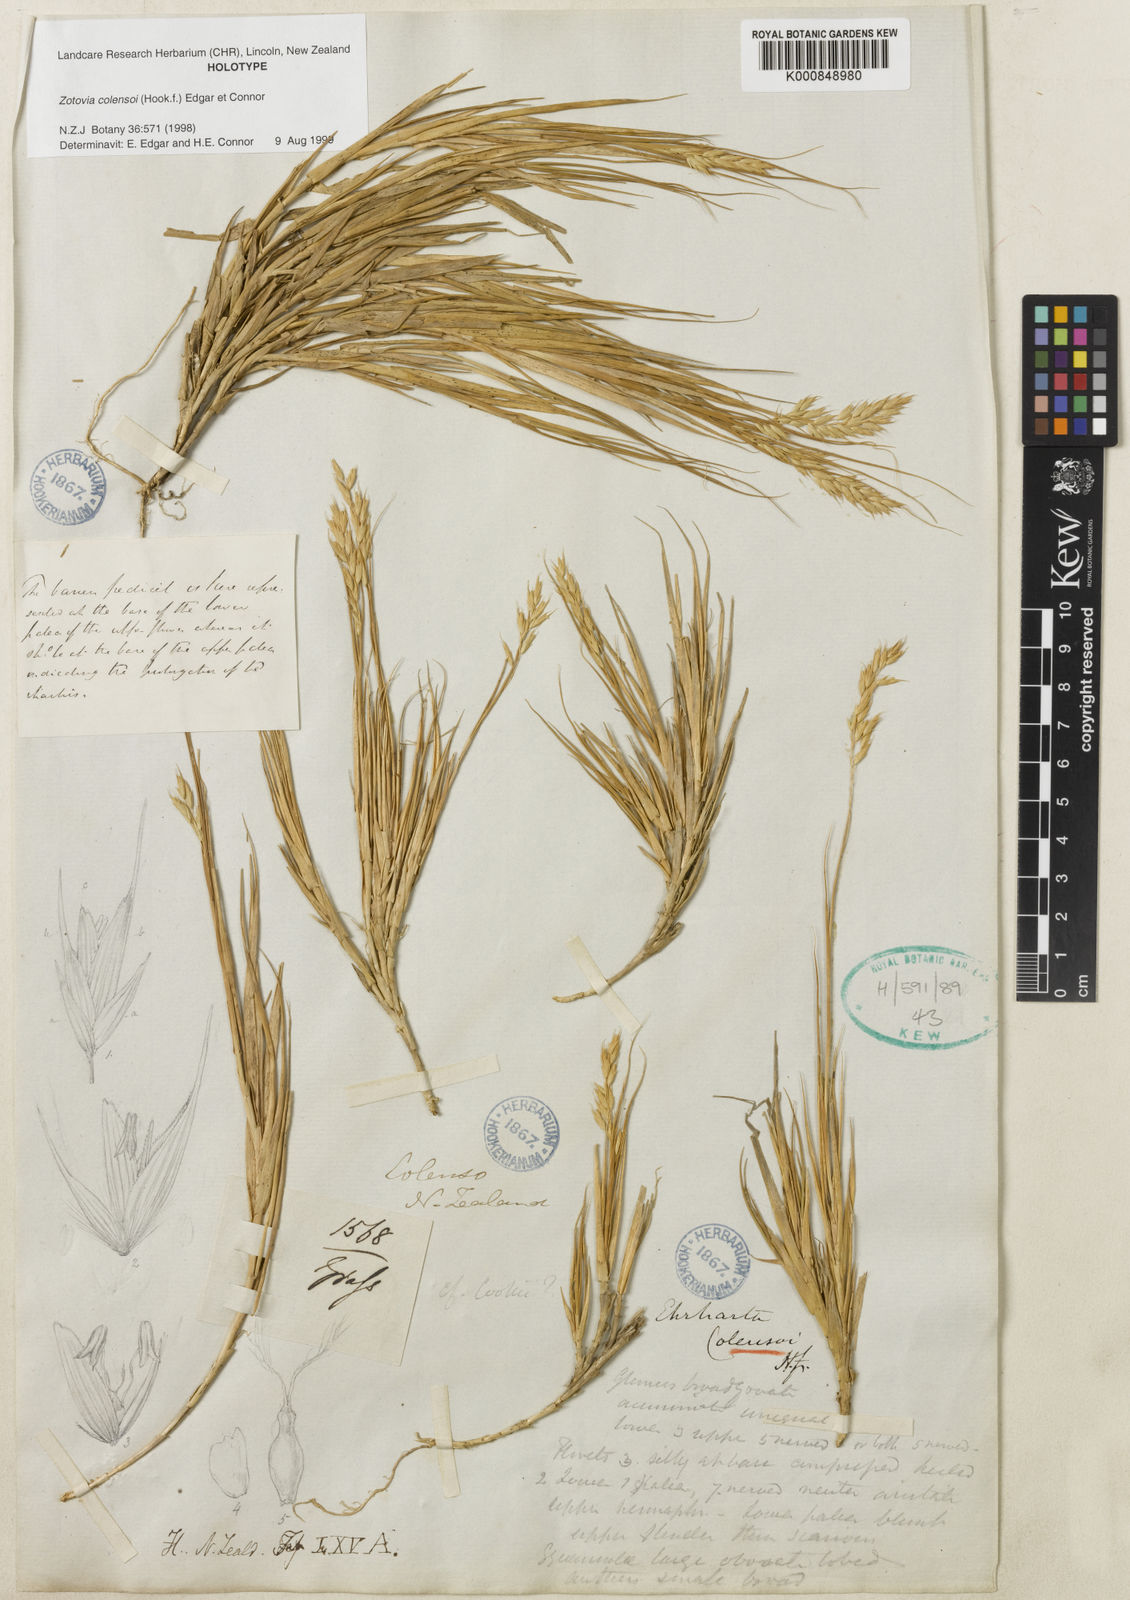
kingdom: Plantae
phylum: Tracheophyta
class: Liliopsida
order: Poales
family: Poaceae
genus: Zotovia
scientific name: Zotovia colensoi
